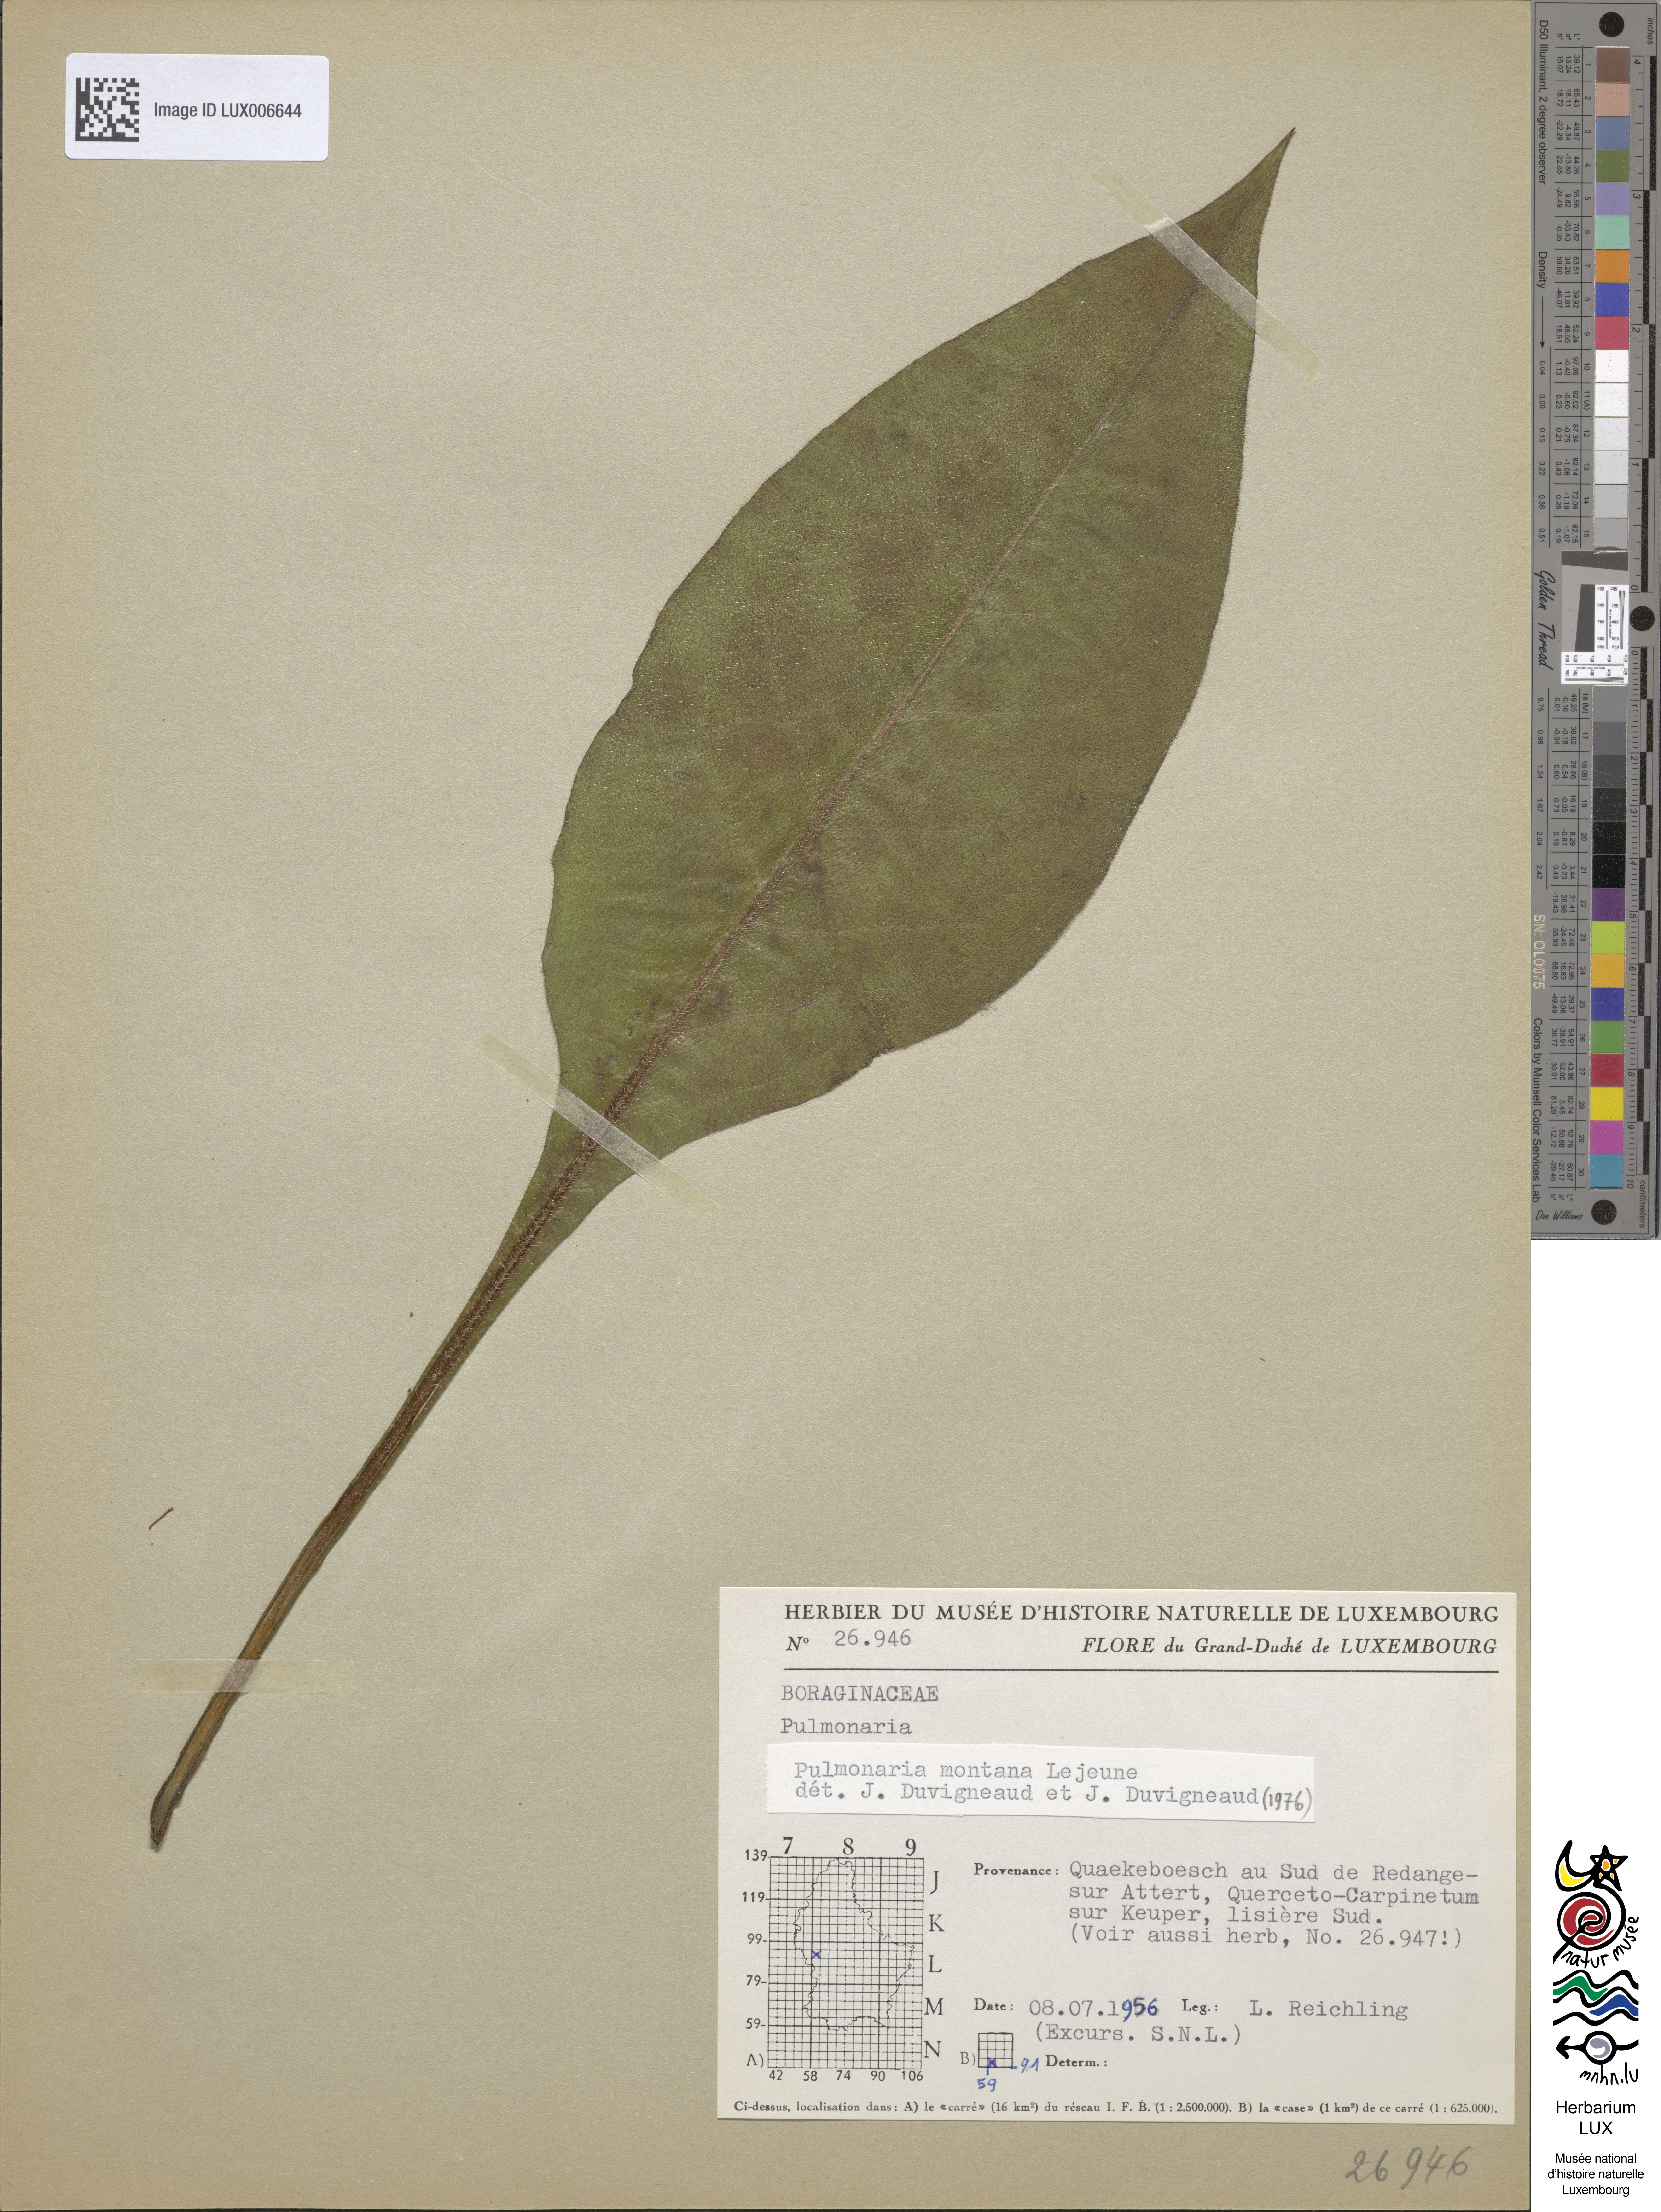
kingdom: Plantae
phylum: Tracheophyta
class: Magnoliopsida
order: Boraginales
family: Boraginaceae
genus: Pulmonaria
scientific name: Pulmonaria montana
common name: Mountain lungwort
